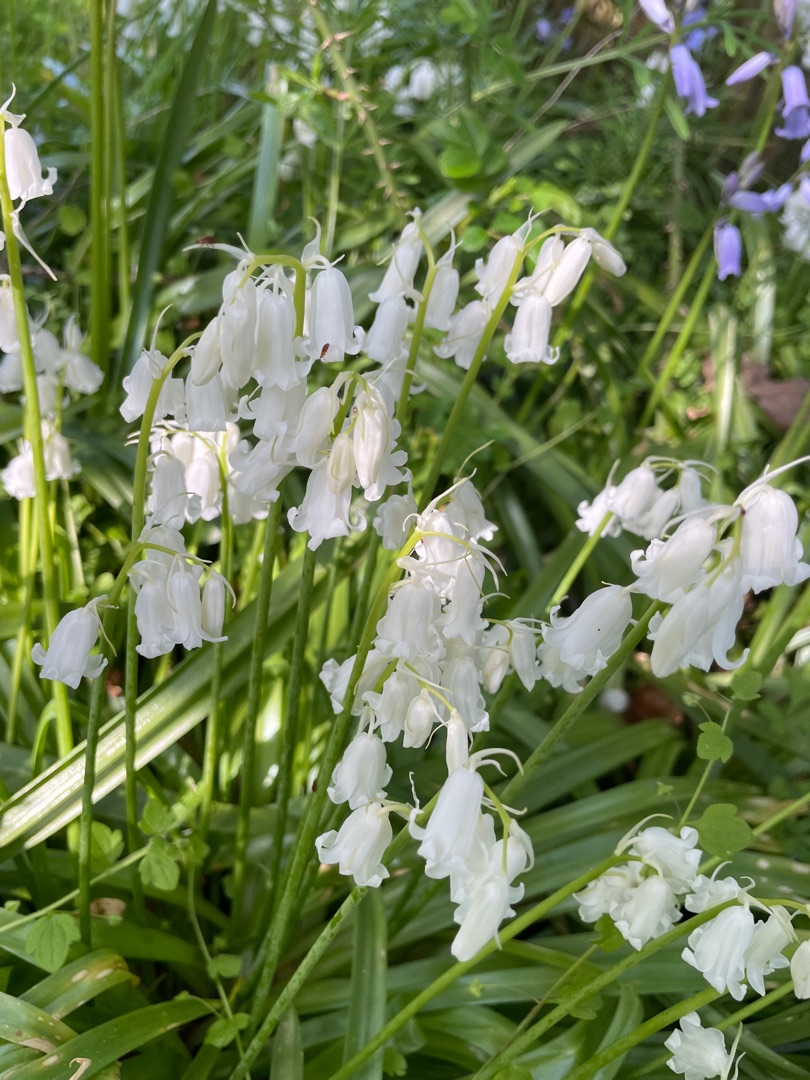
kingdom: Plantae
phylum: Tracheophyta
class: Liliopsida
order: Asparagales
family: Asparagaceae
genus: Hyacinthoides
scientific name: Hyacinthoides non-scripta
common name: Klokke-skilla
